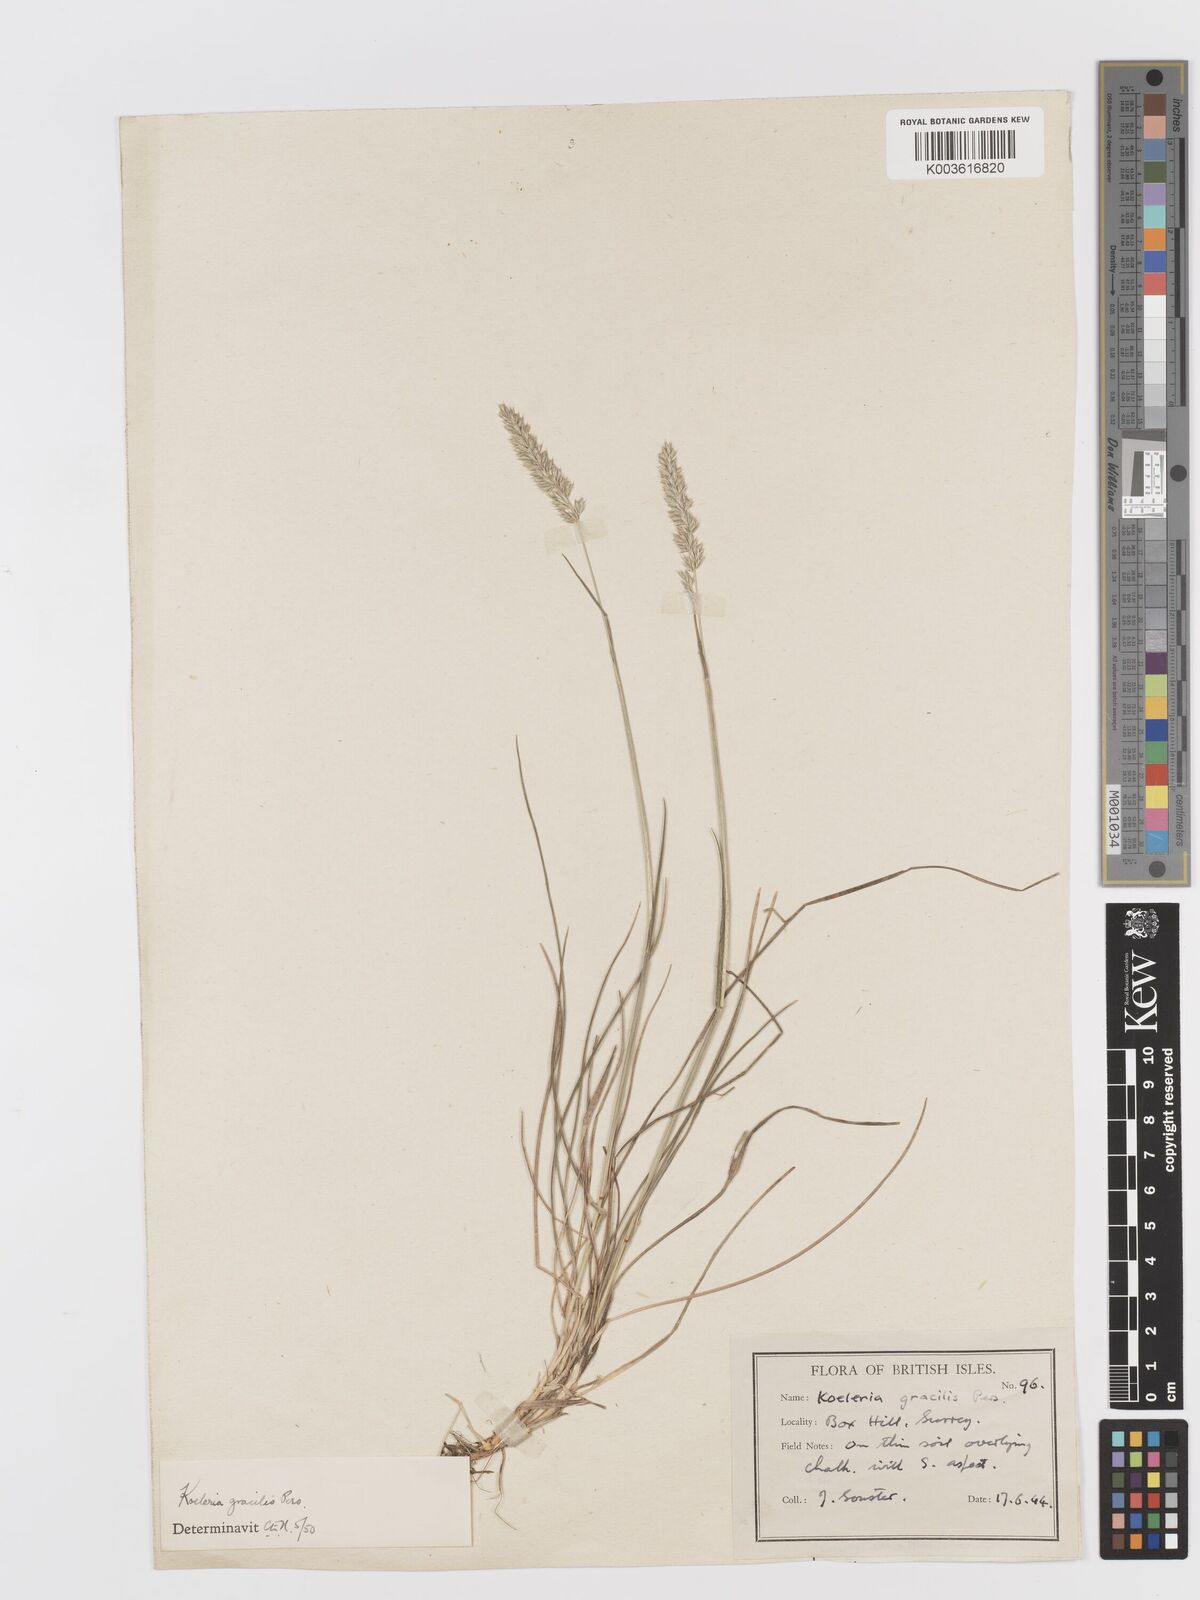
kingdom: Plantae
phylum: Tracheophyta
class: Liliopsida
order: Poales
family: Poaceae
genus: Koeleria
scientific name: Koeleria macrantha
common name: Crested hair-grass
